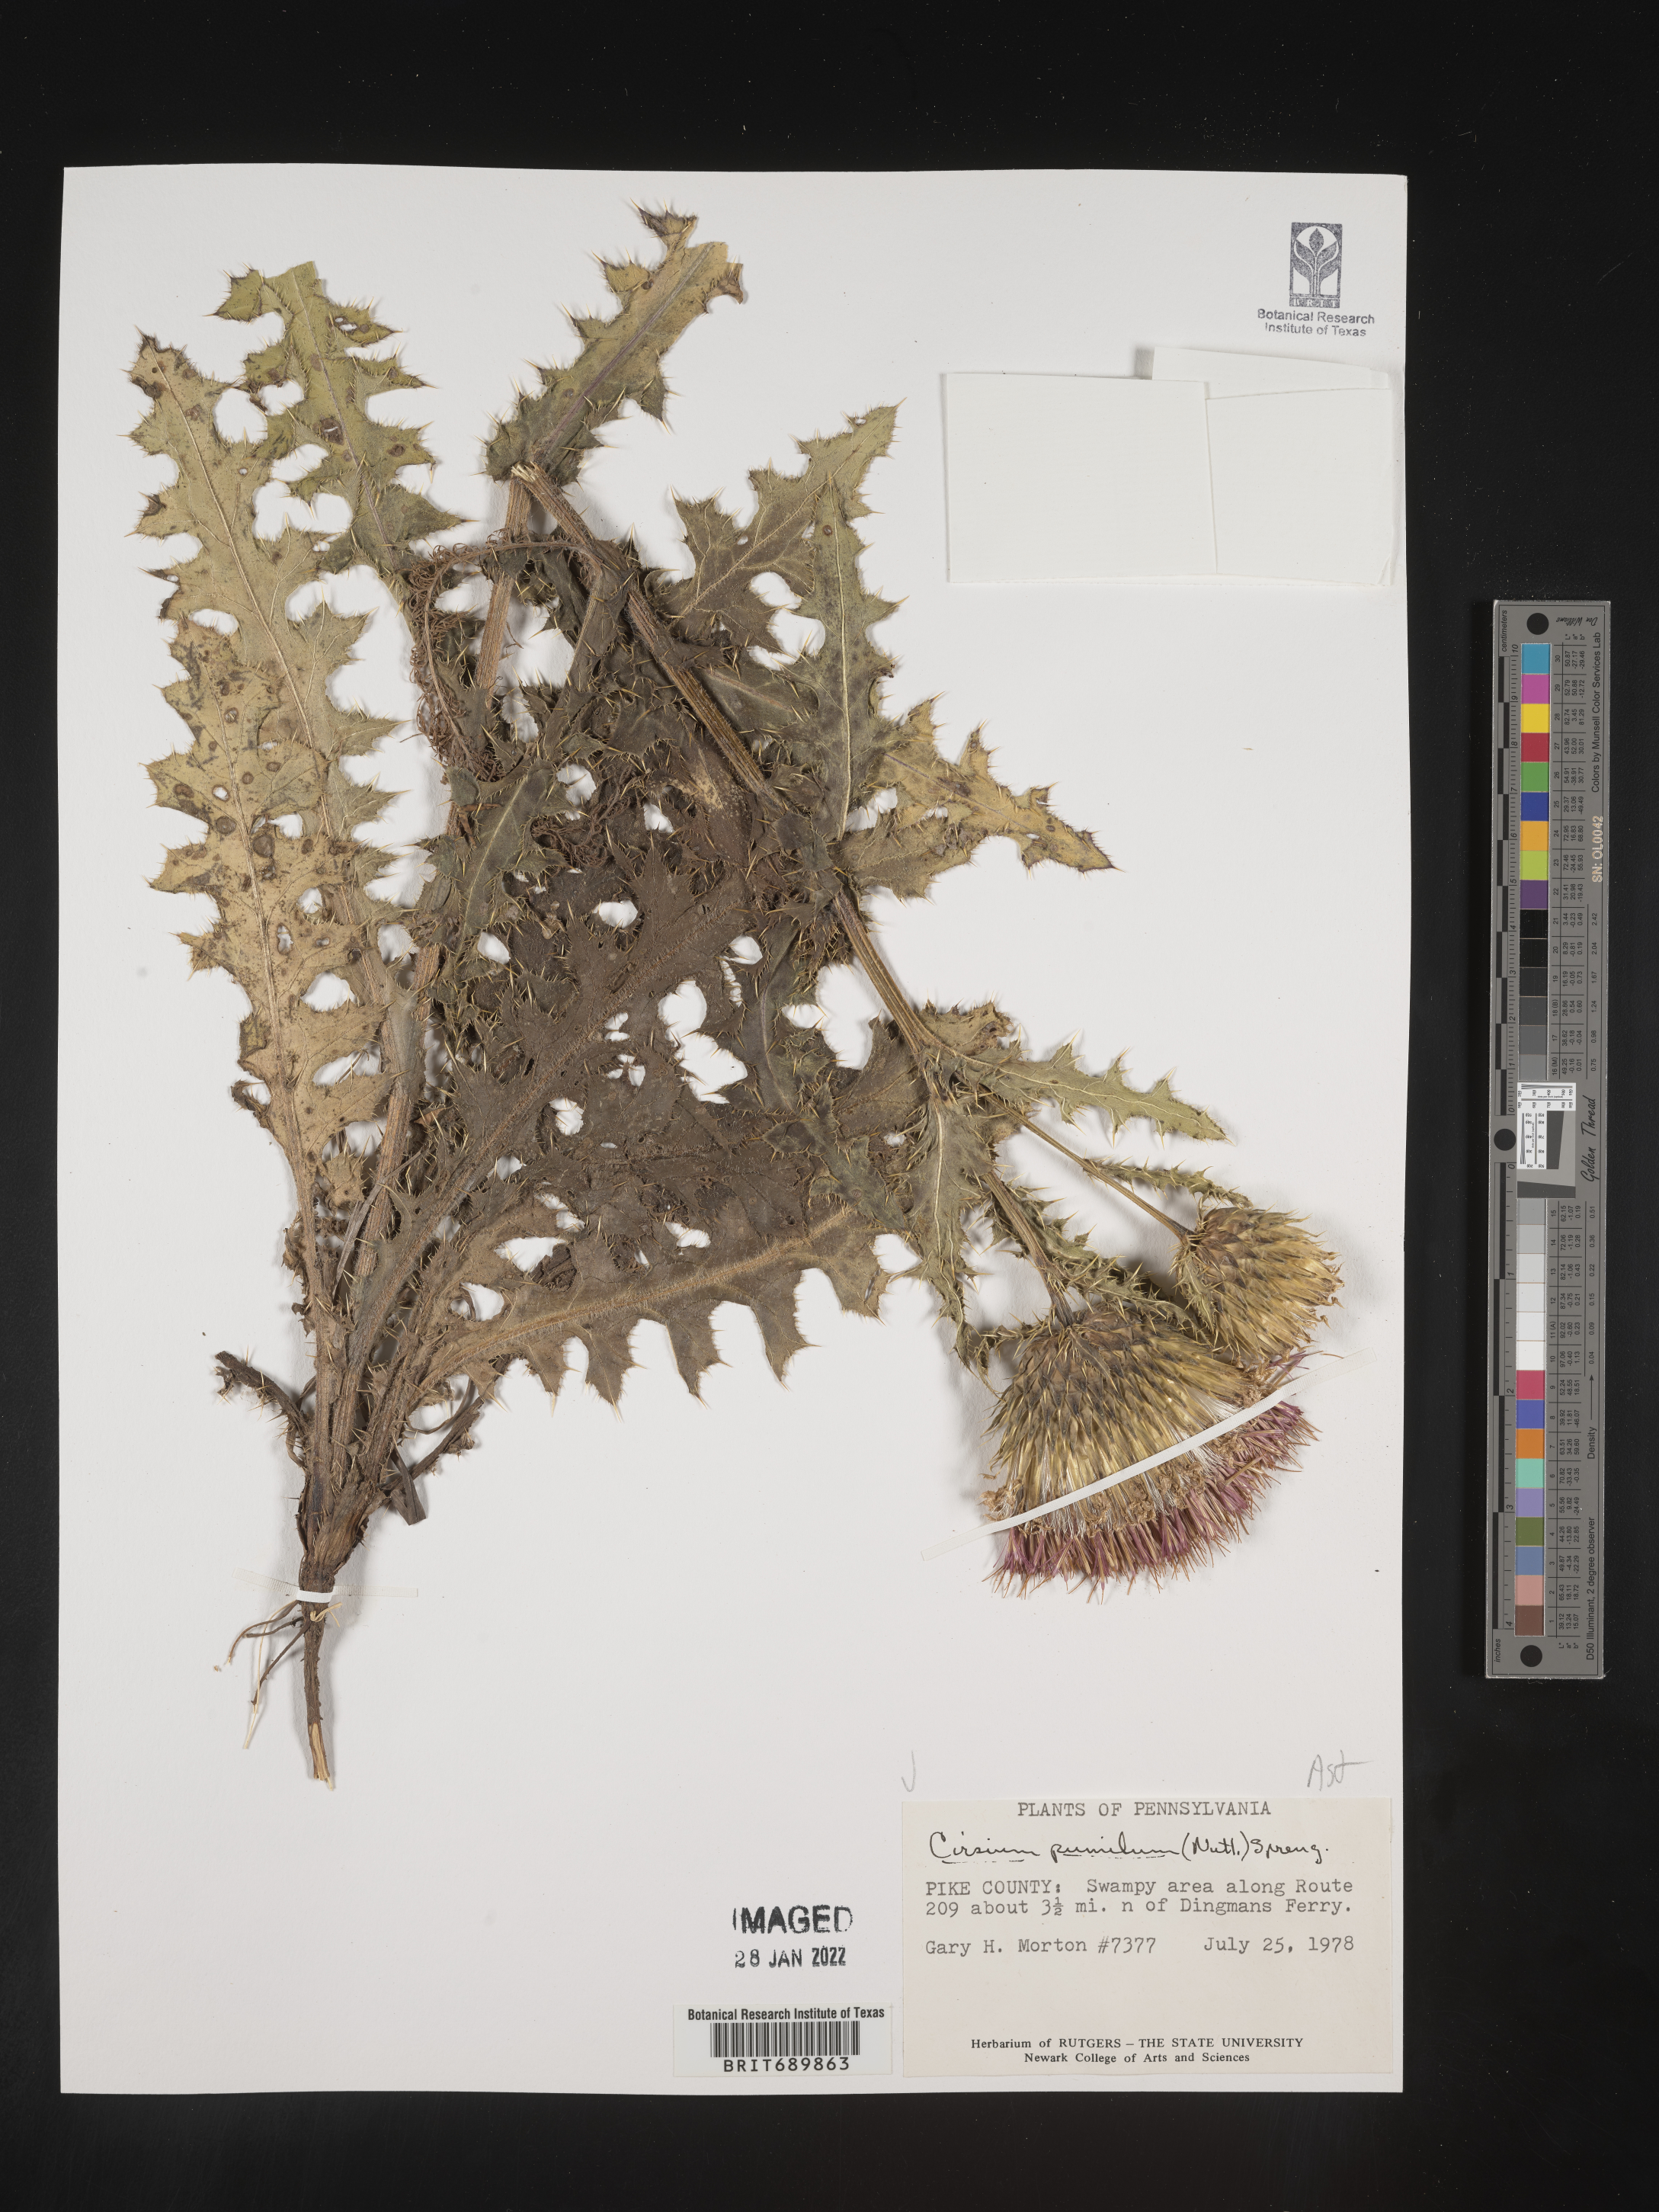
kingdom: Plantae
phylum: Tracheophyta
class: Magnoliopsida
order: Asterales
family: Asteraceae
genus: Cirsium
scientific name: Cirsium pumilum
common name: Pasture thistle
